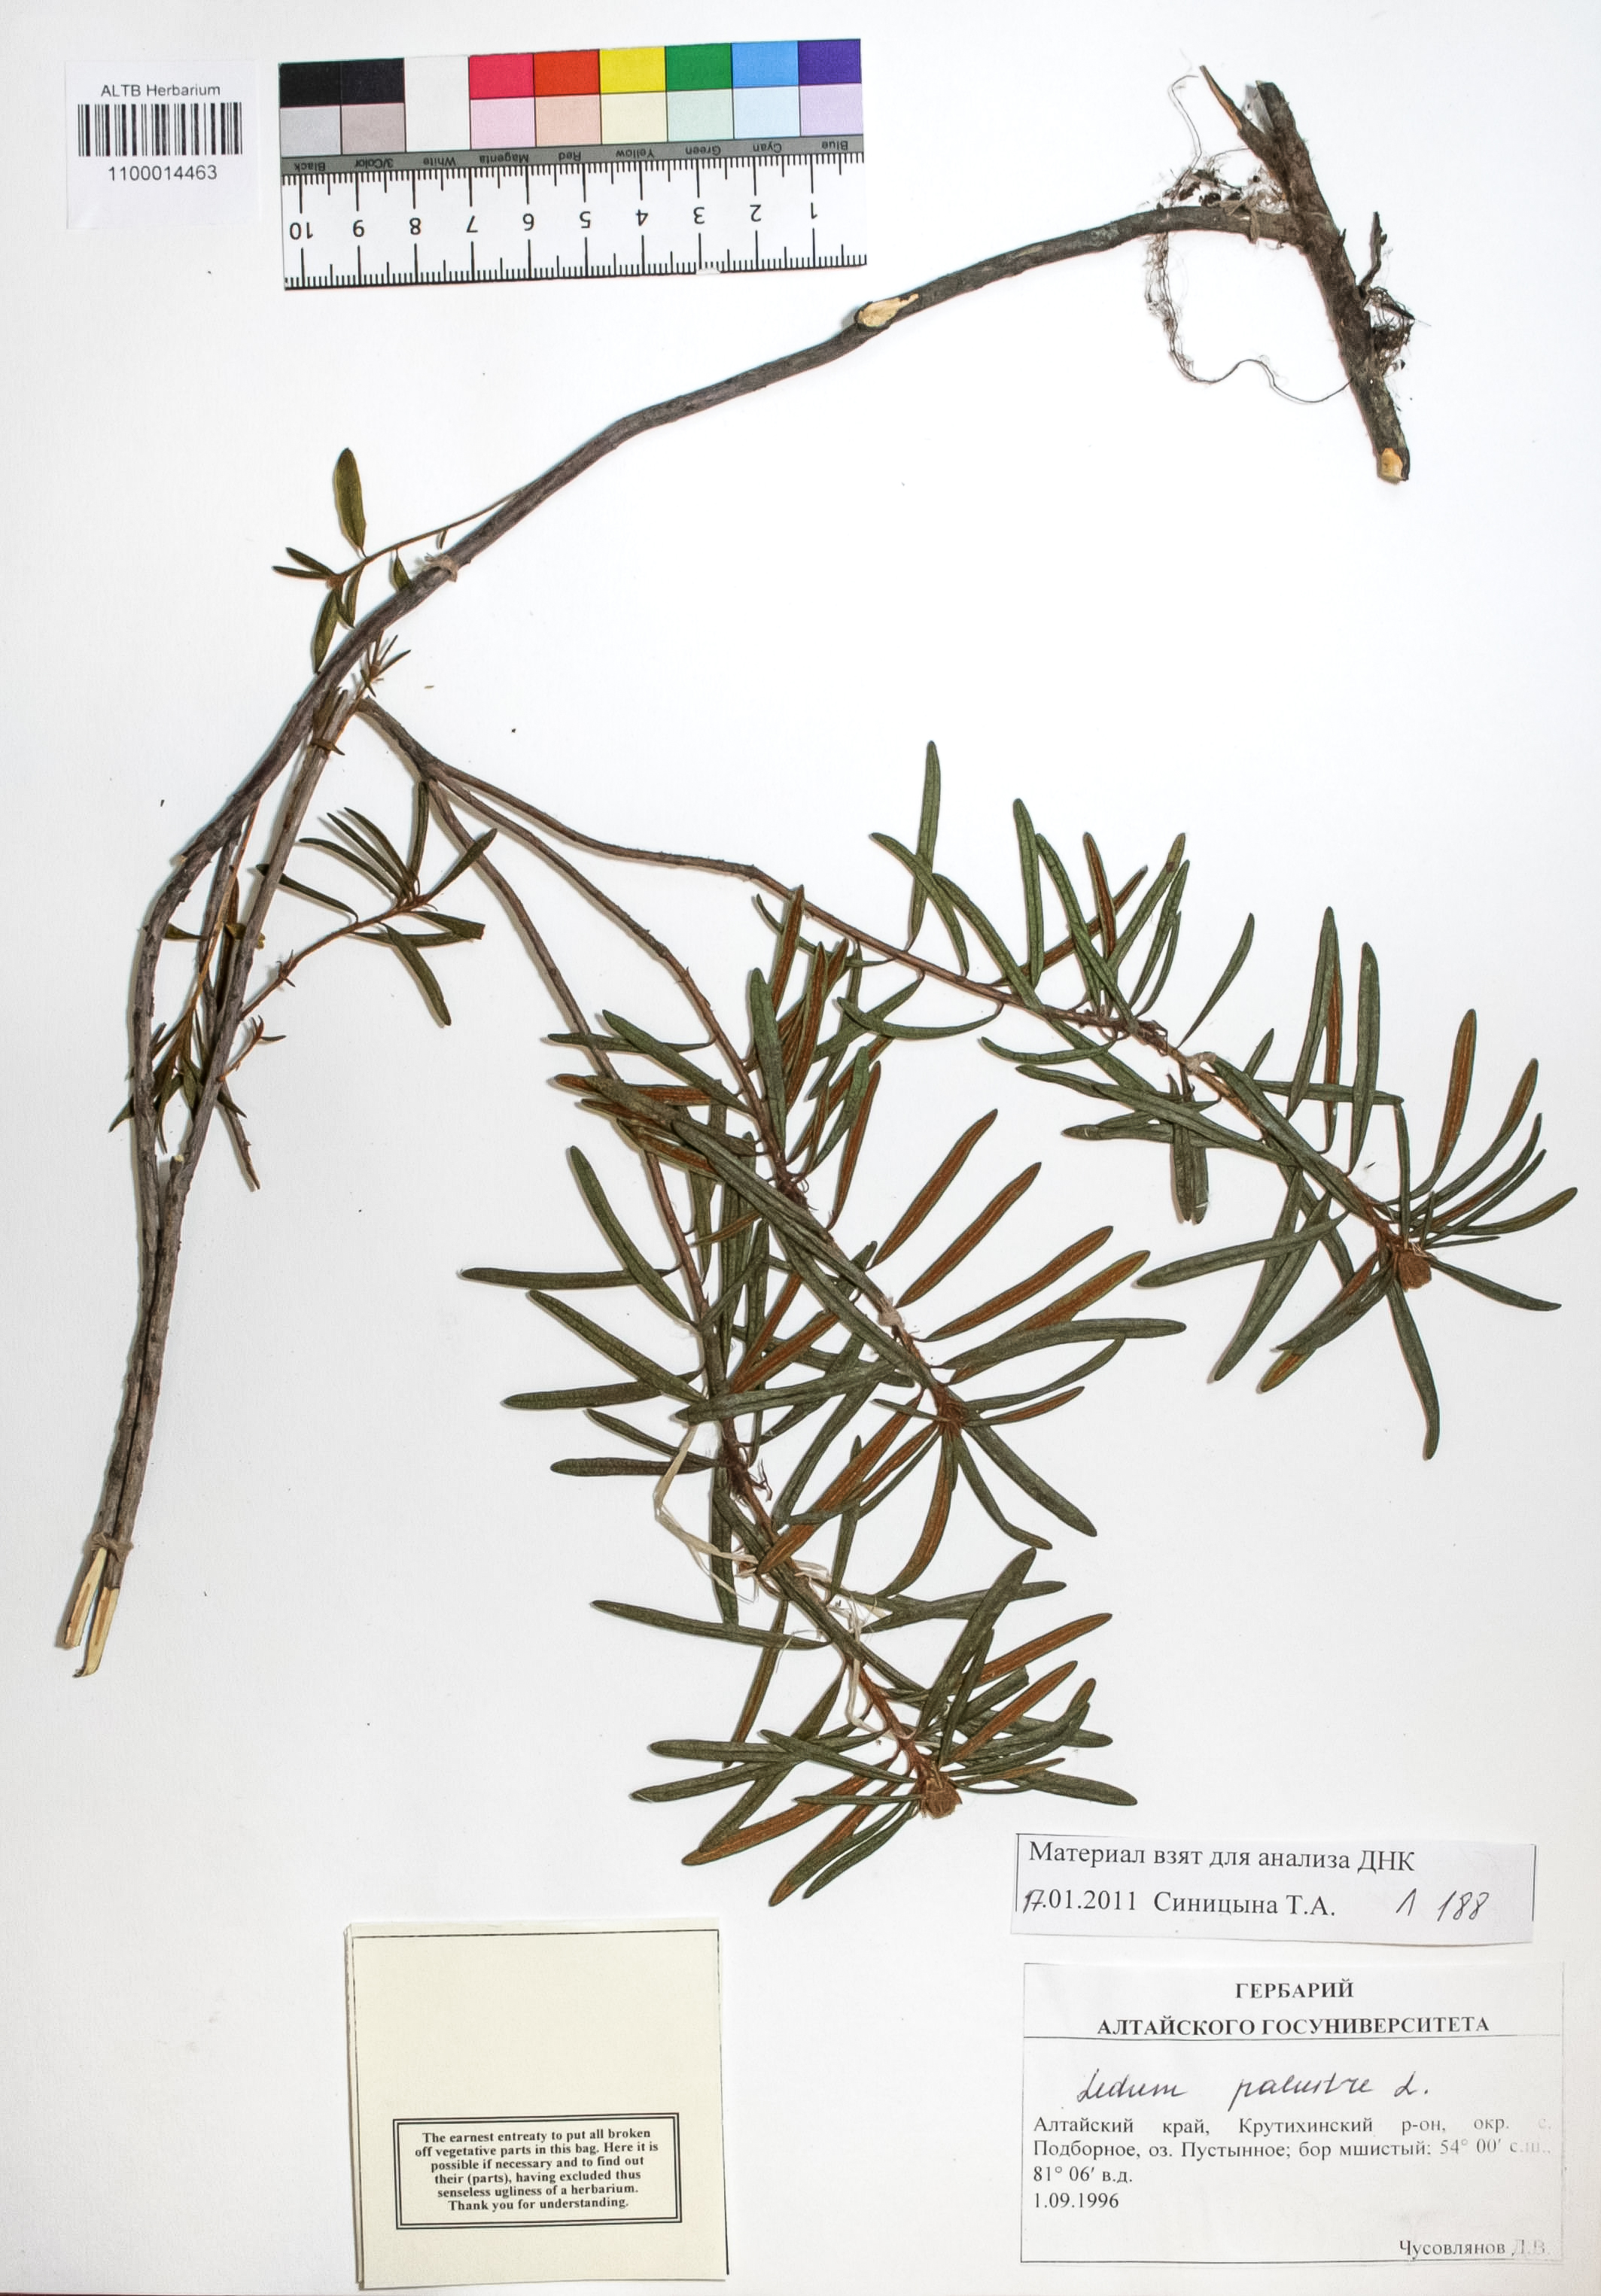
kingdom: Plantae
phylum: Tracheophyta
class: Magnoliopsida
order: Ericales
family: Ericaceae
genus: Rhododendron
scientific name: Rhododendron tomentosum
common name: Marsh labrador tea
